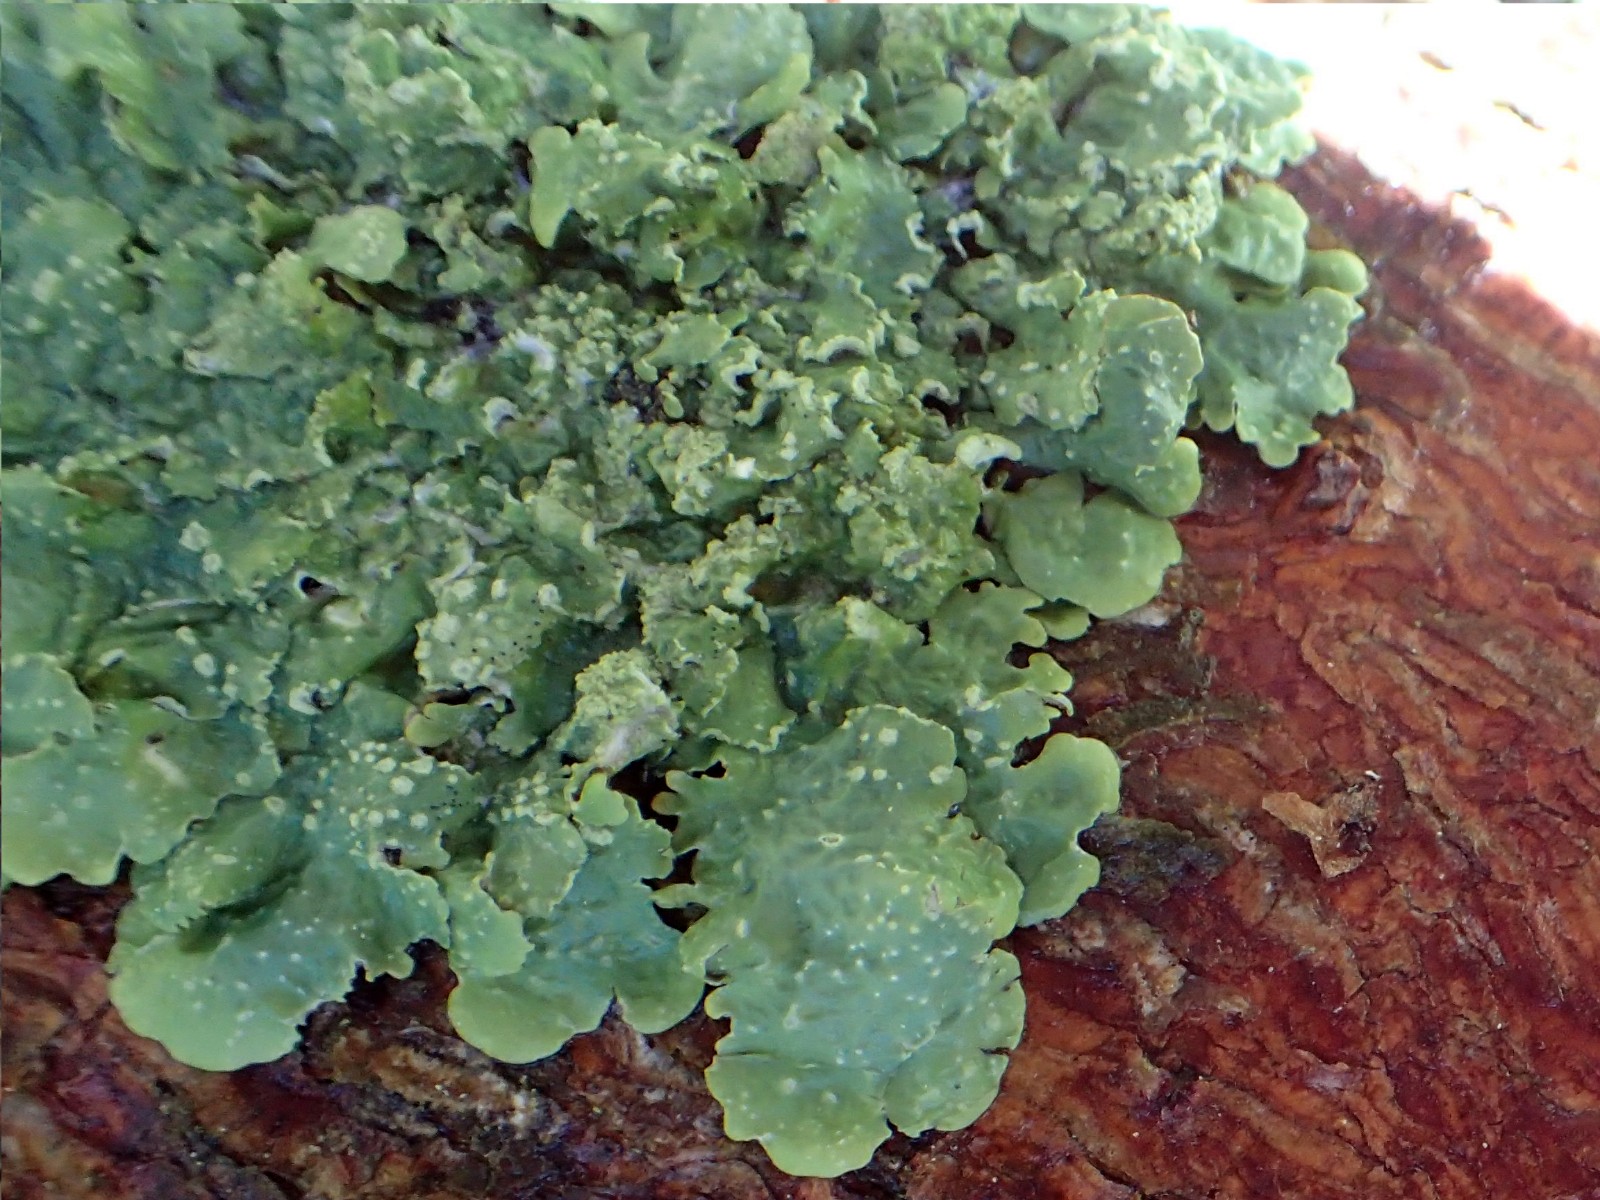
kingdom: Fungi
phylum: Ascomycota
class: Lecanoromycetes
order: Lecanorales
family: Parmeliaceae
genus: Punctelia
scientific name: Punctelia subrudecta
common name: punkt-skållav
